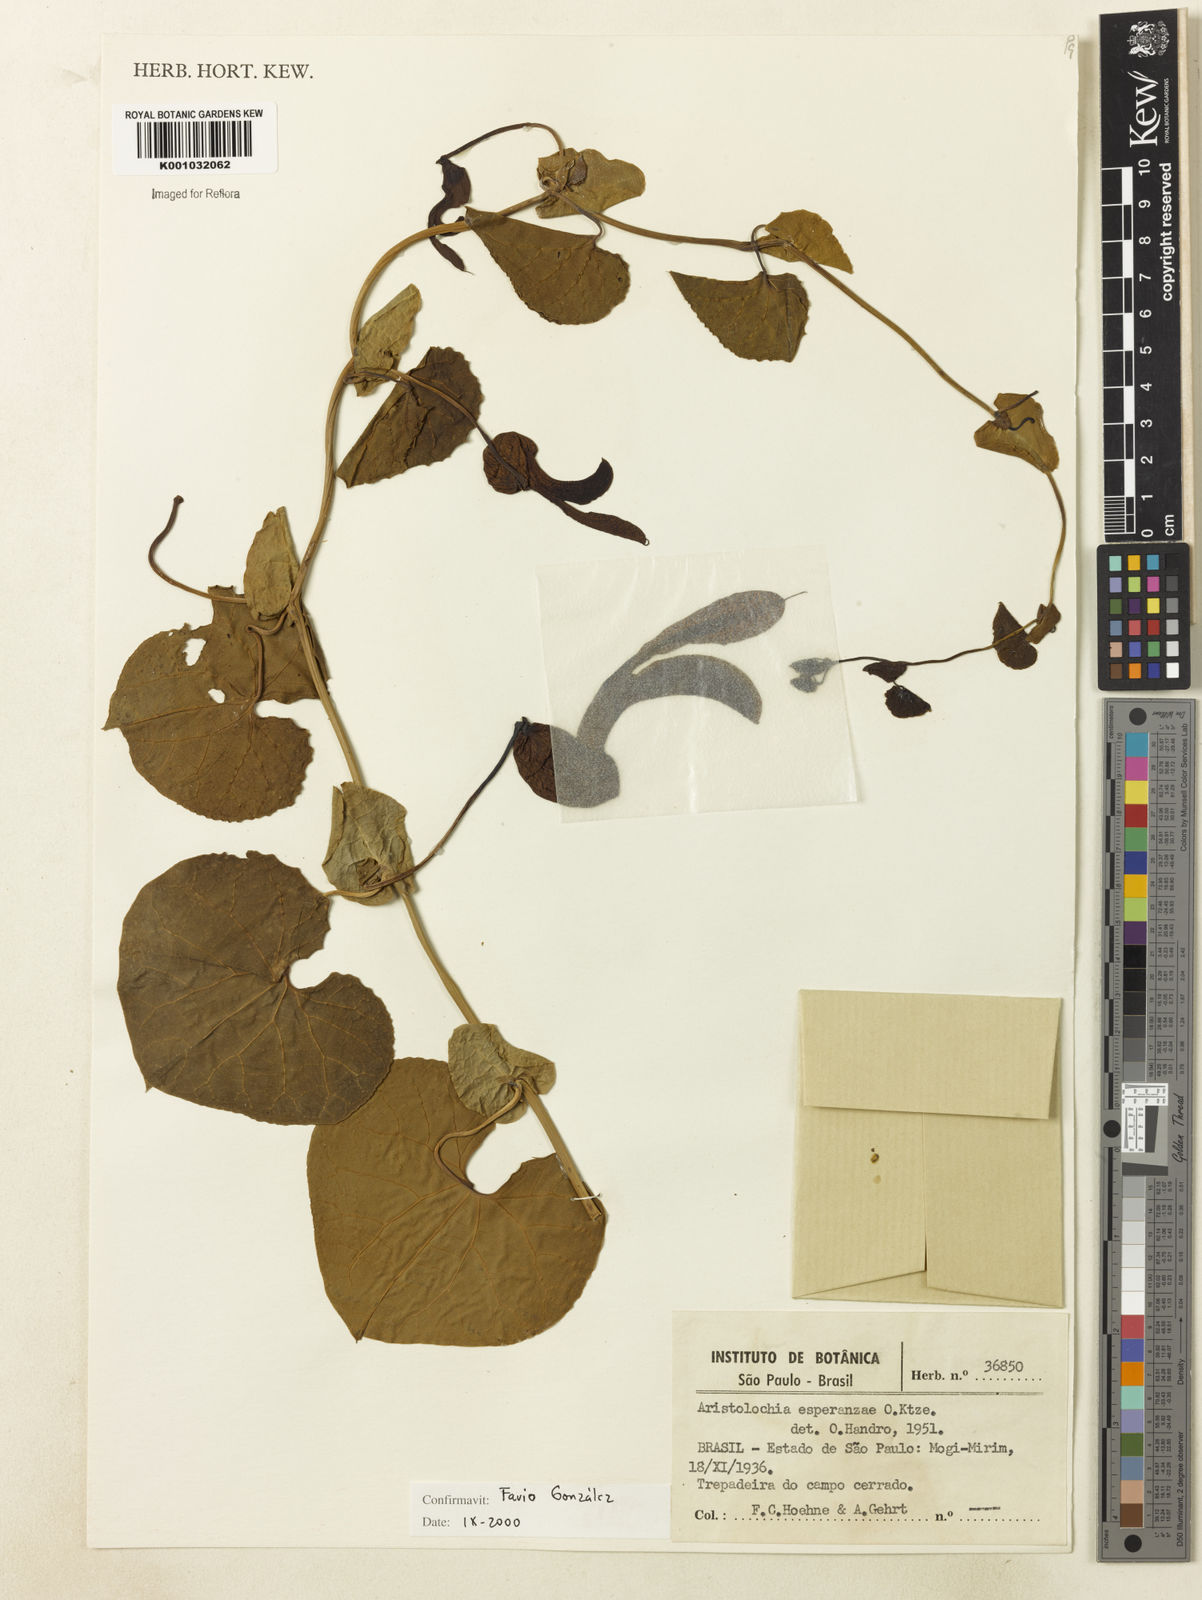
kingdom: Plantae
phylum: Tracheophyta
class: Magnoliopsida
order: Piperales
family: Aristolochiaceae
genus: Aristolochia
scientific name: Aristolochia
